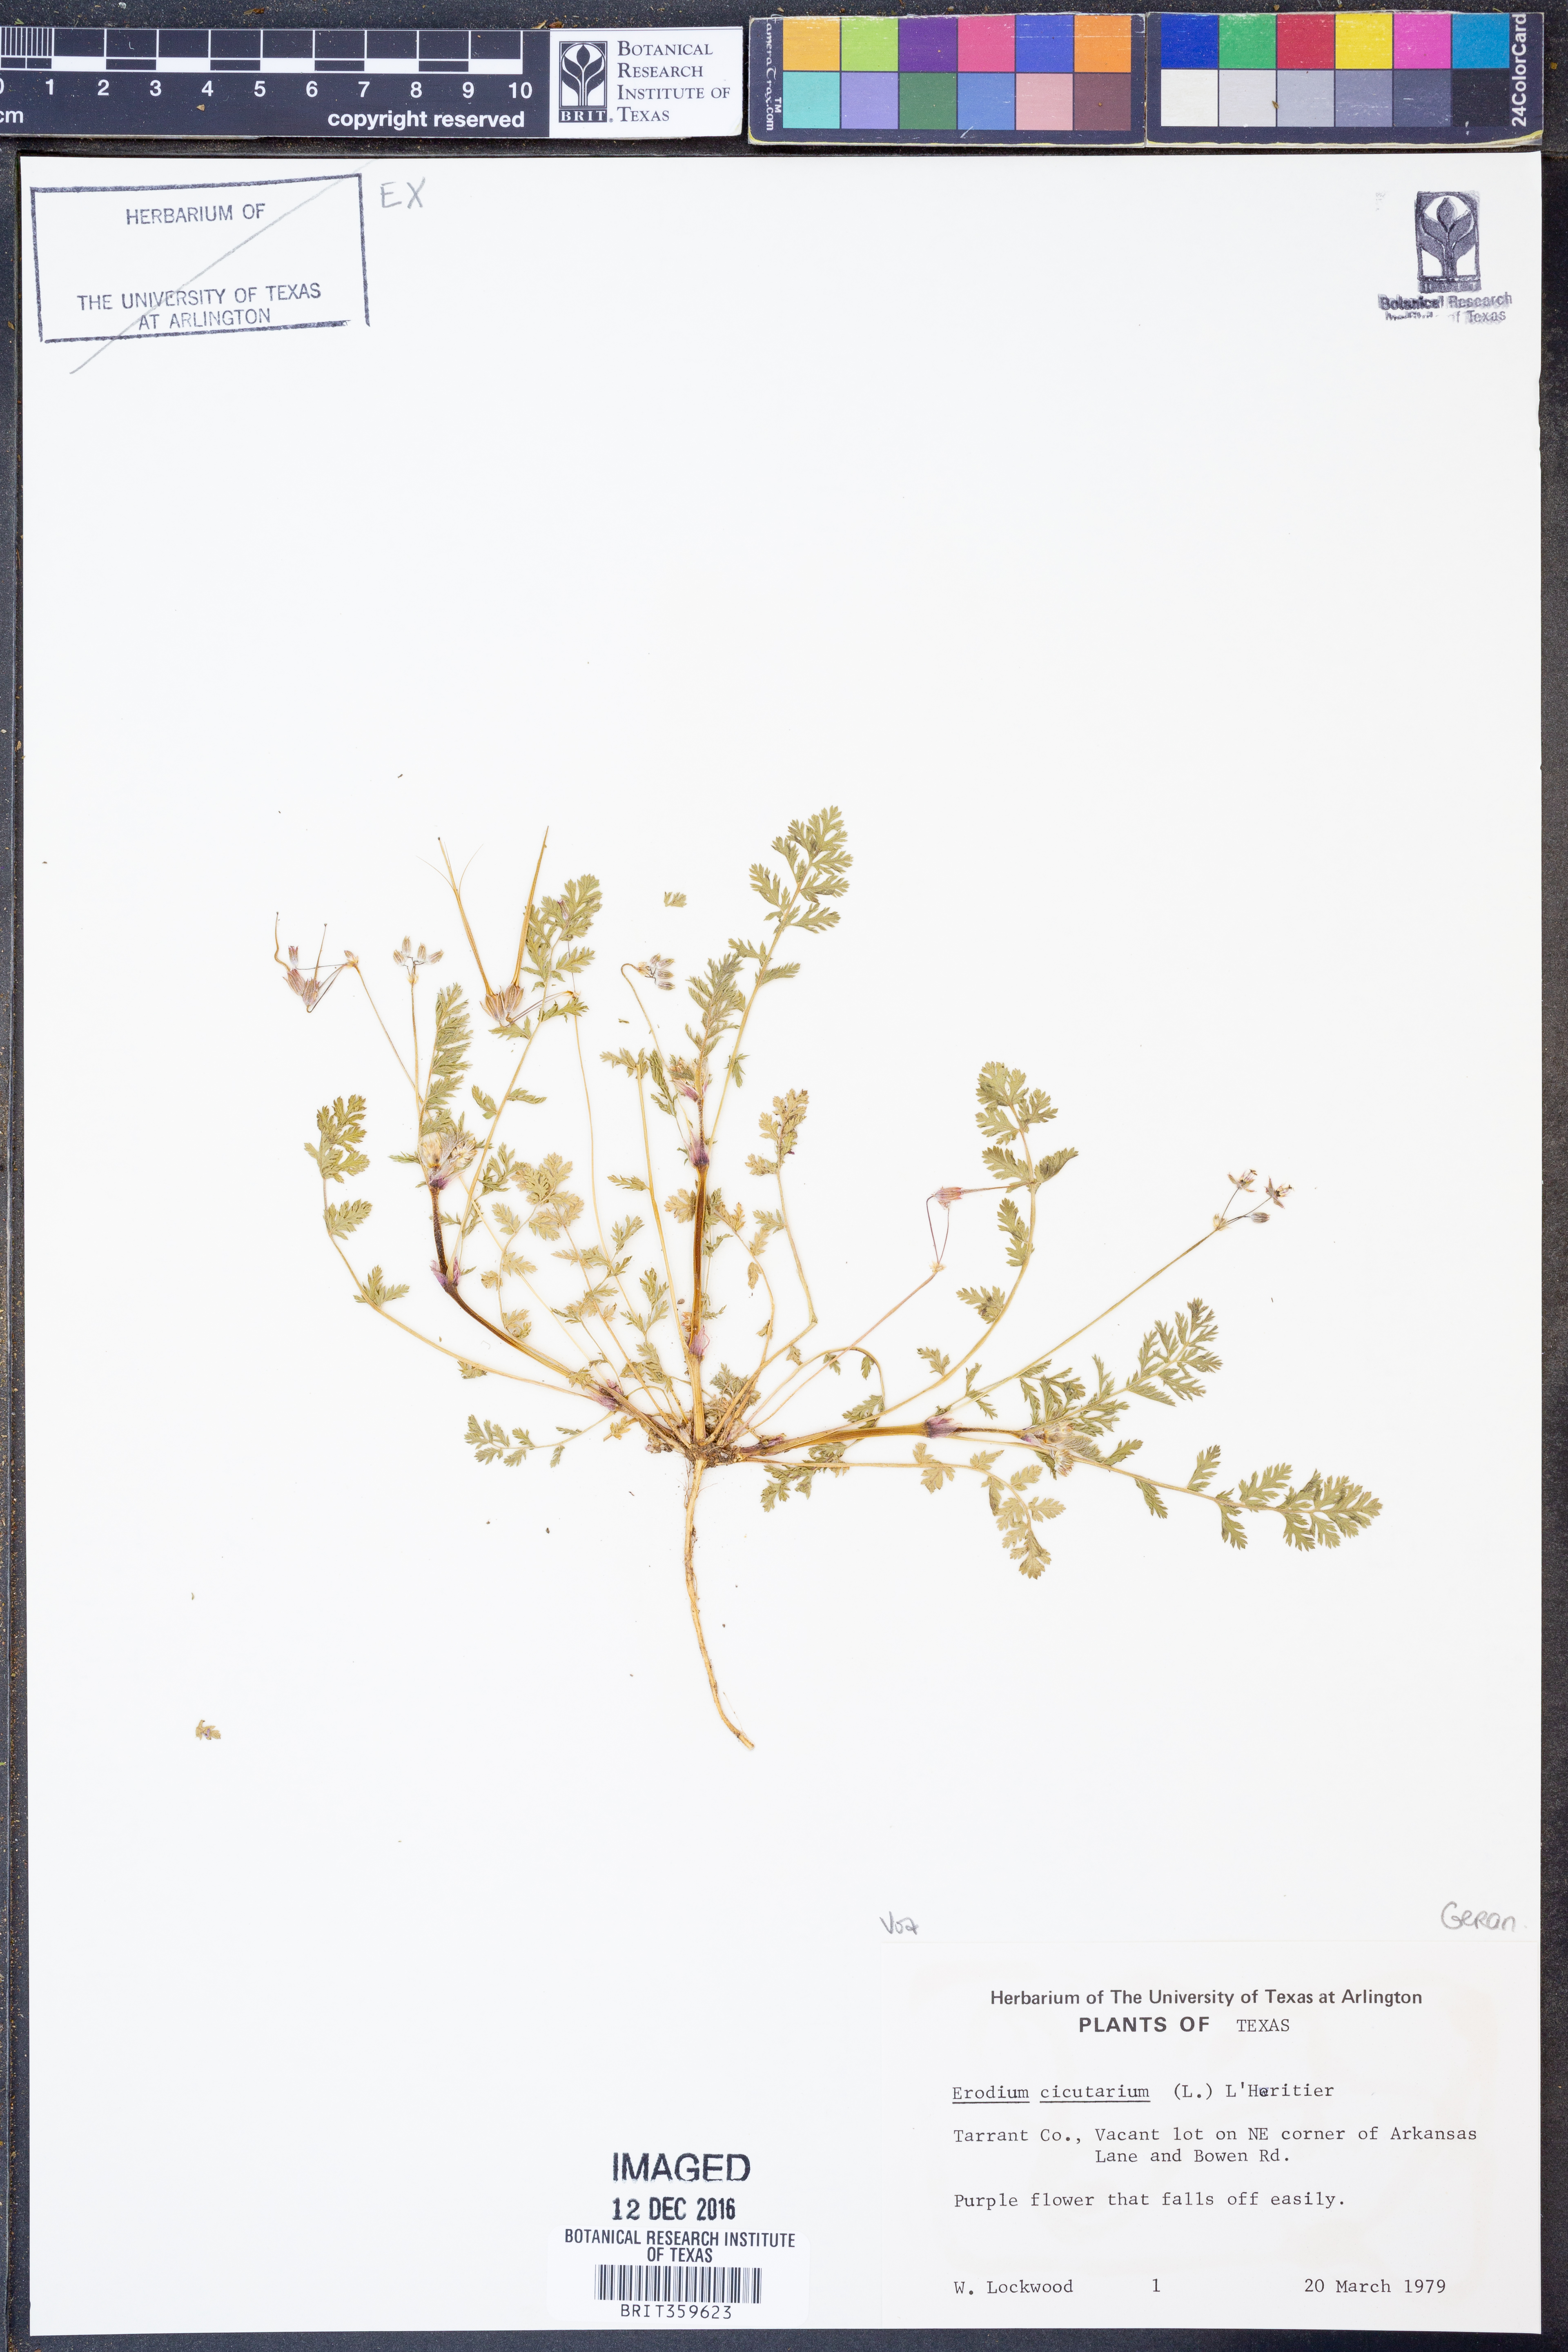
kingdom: Plantae
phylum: Tracheophyta
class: Magnoliopsida
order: Geraniales
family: Geraniaceae
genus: Erodium
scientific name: Erodium cicutarium
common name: Common stork's-bill
